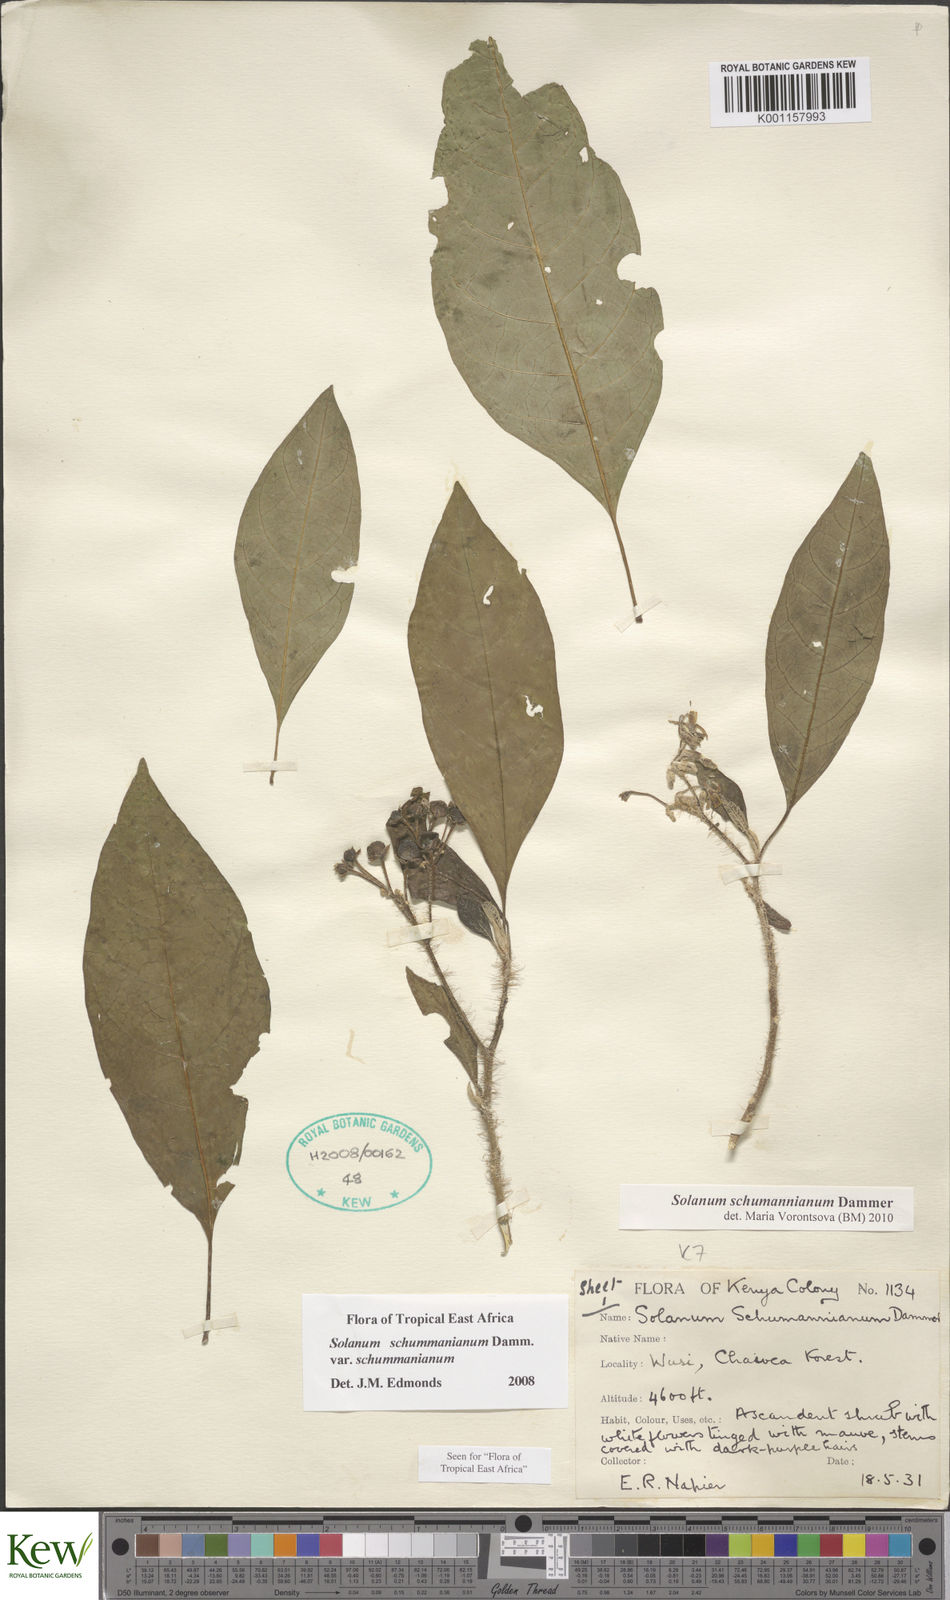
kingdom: Plantae
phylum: Tracheophyta
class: Magnoliopsida
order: Solanales
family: Solanaceae
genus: Solanum
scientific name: Solanum schumannianum
